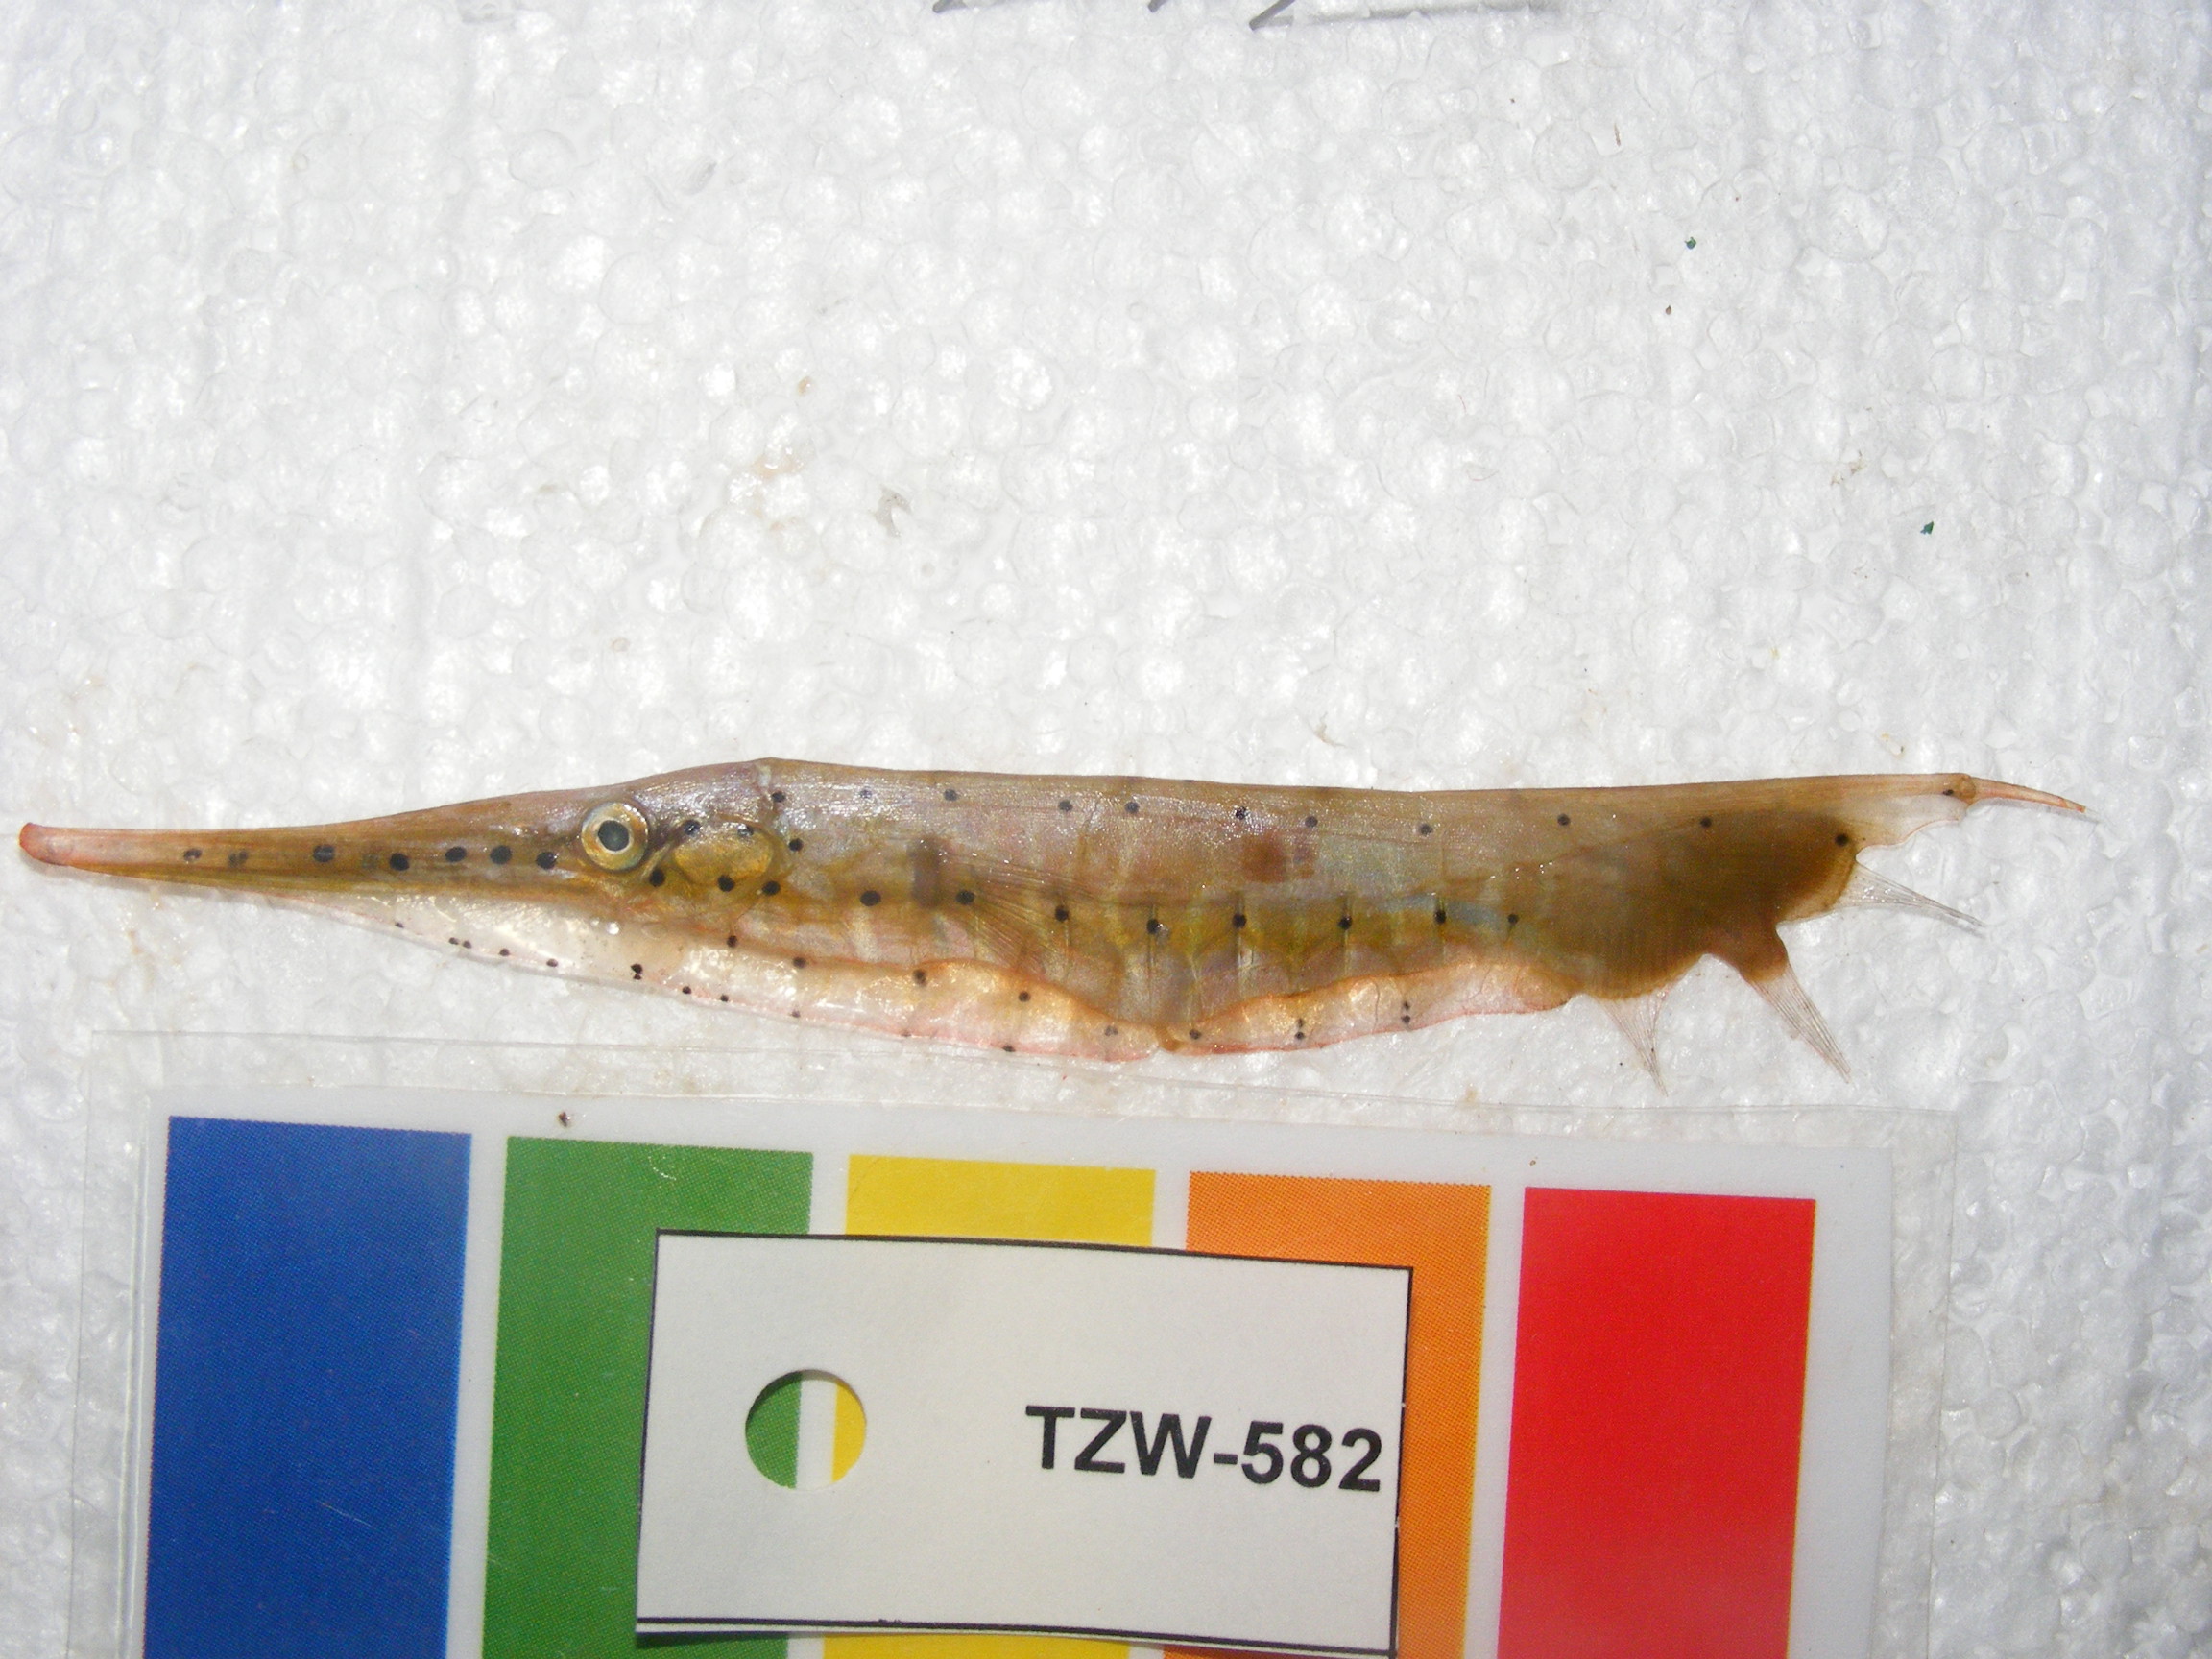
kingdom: Animalia
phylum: Chordata
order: Syngnathiformes
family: Centriscidae
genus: Aeoliscus
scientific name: Aeoliscus punctulatus
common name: Razorfish
